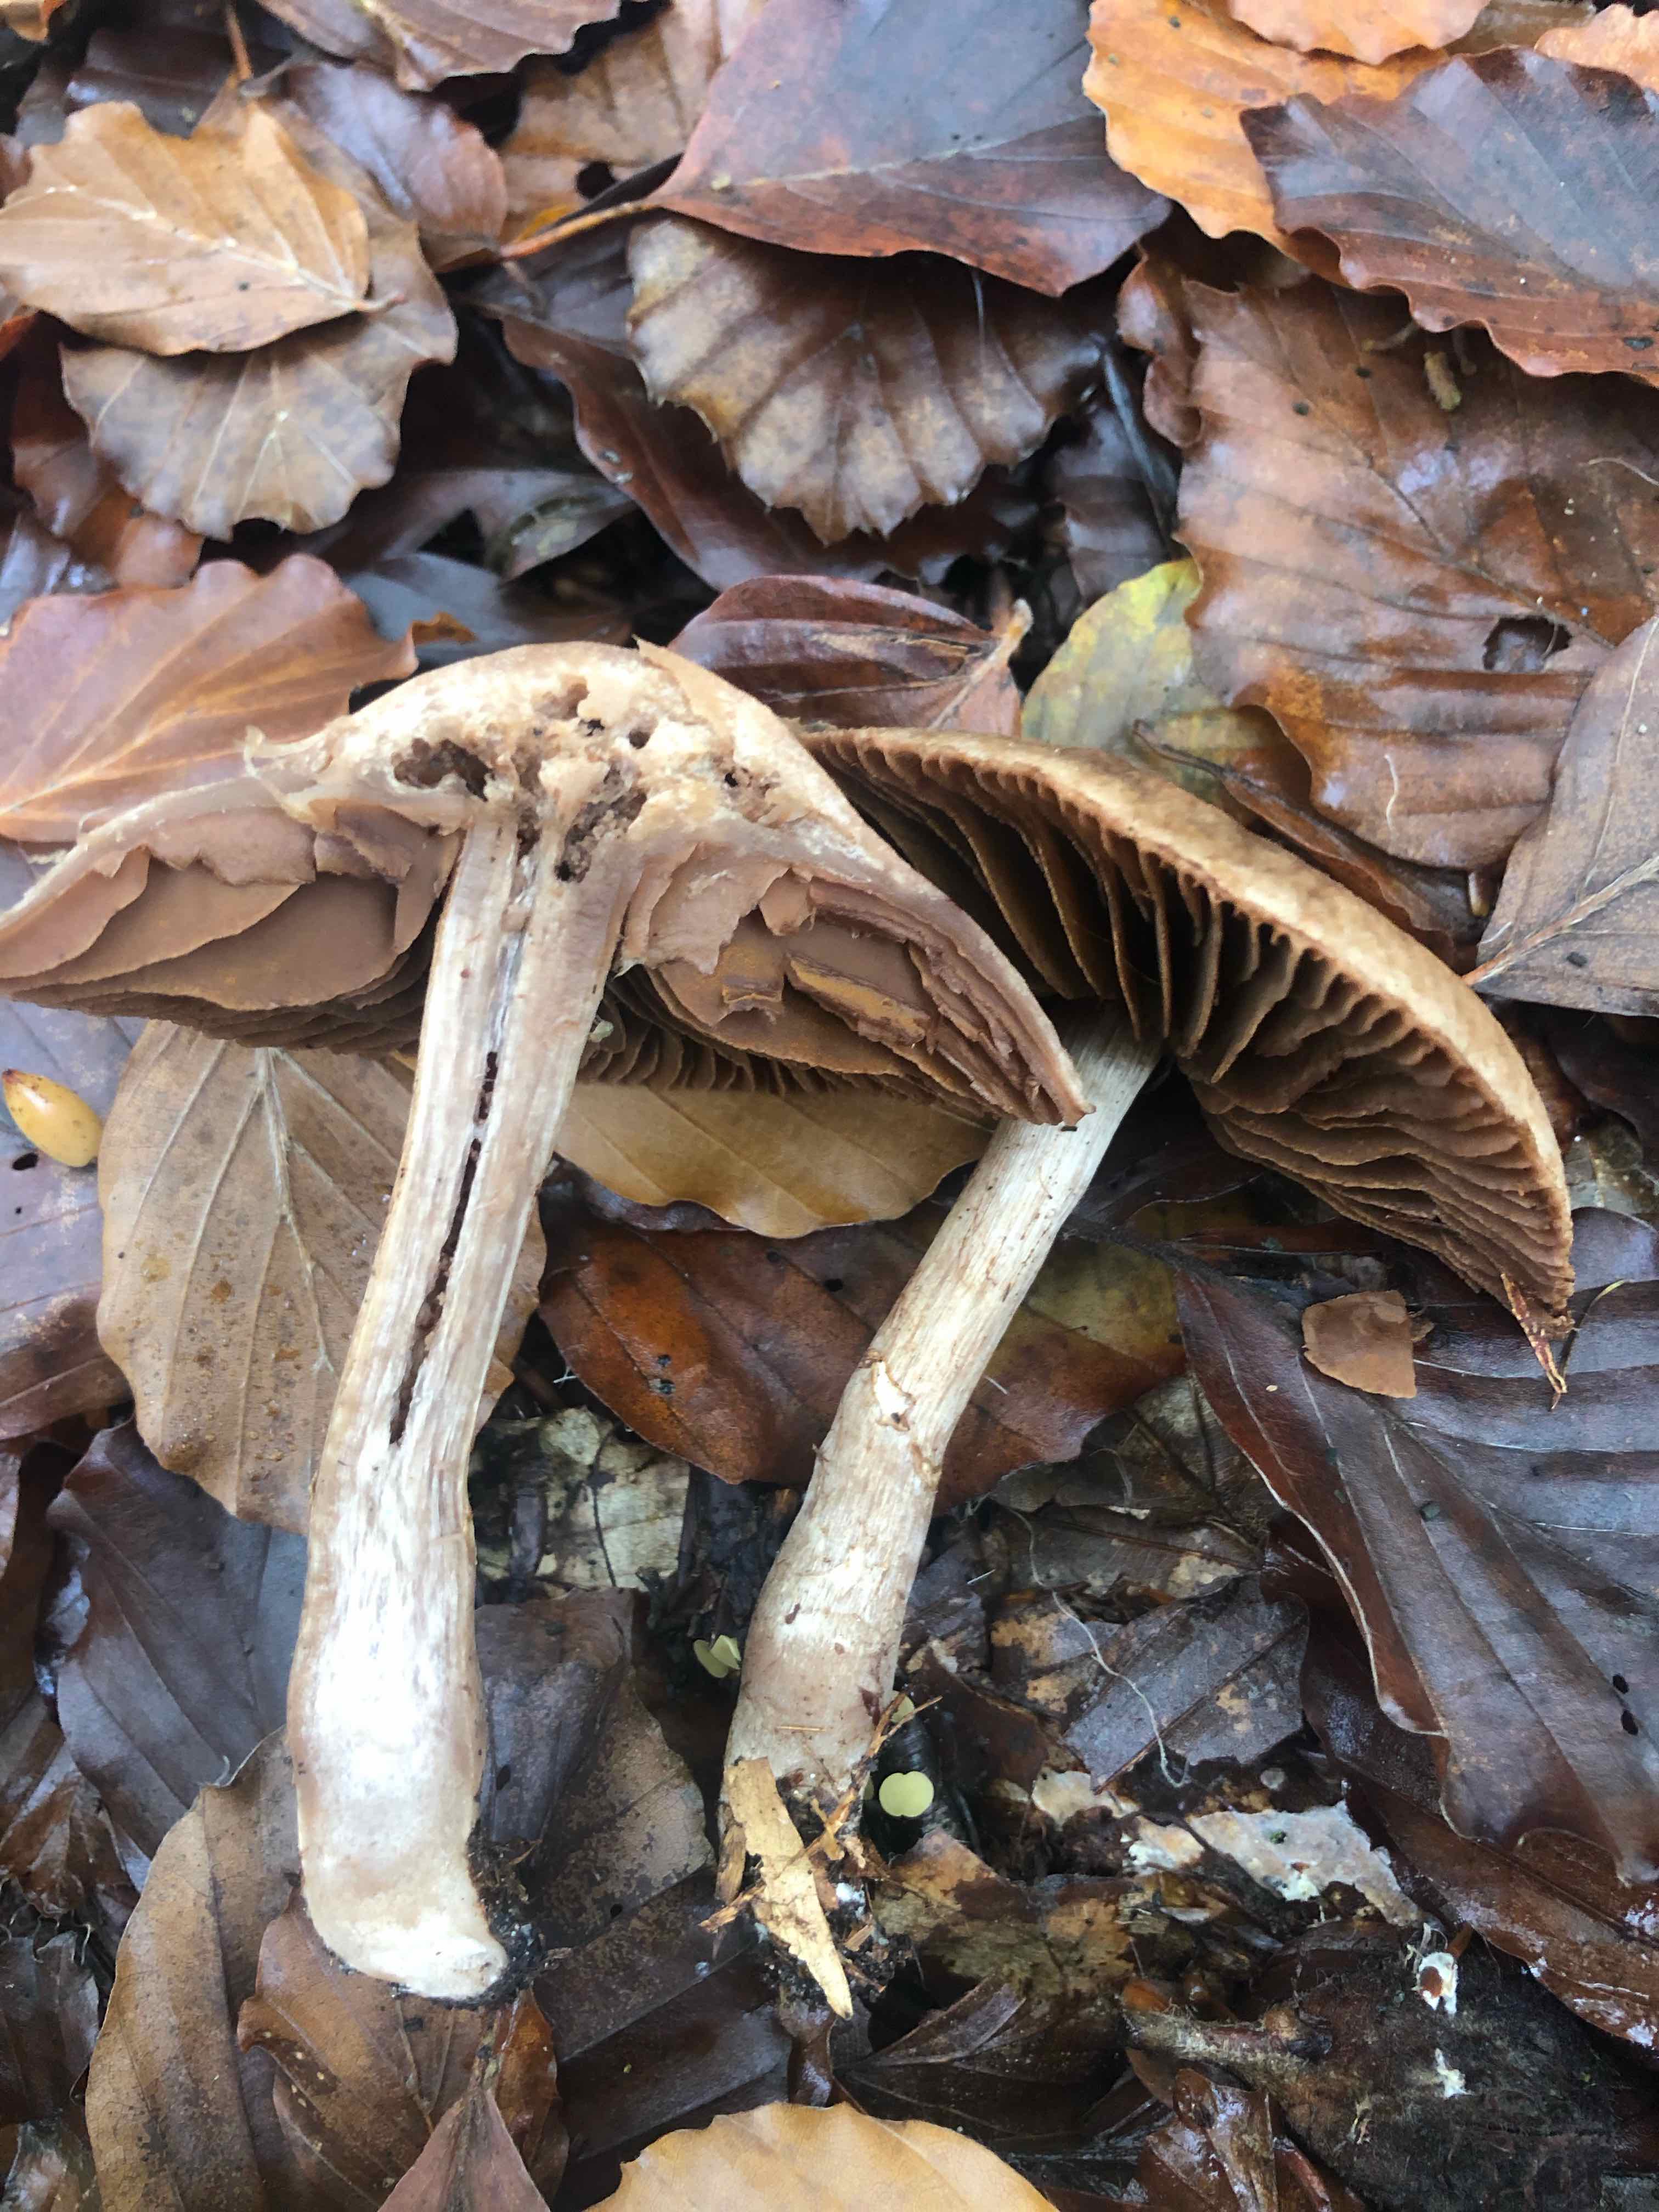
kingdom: Fungi
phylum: Basidiomycota
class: Agaricomycetes
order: Agaricales
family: Cortinariaceae
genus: Cortinarius
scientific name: Cortinarius torvus
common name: champignonagtig slørhat
